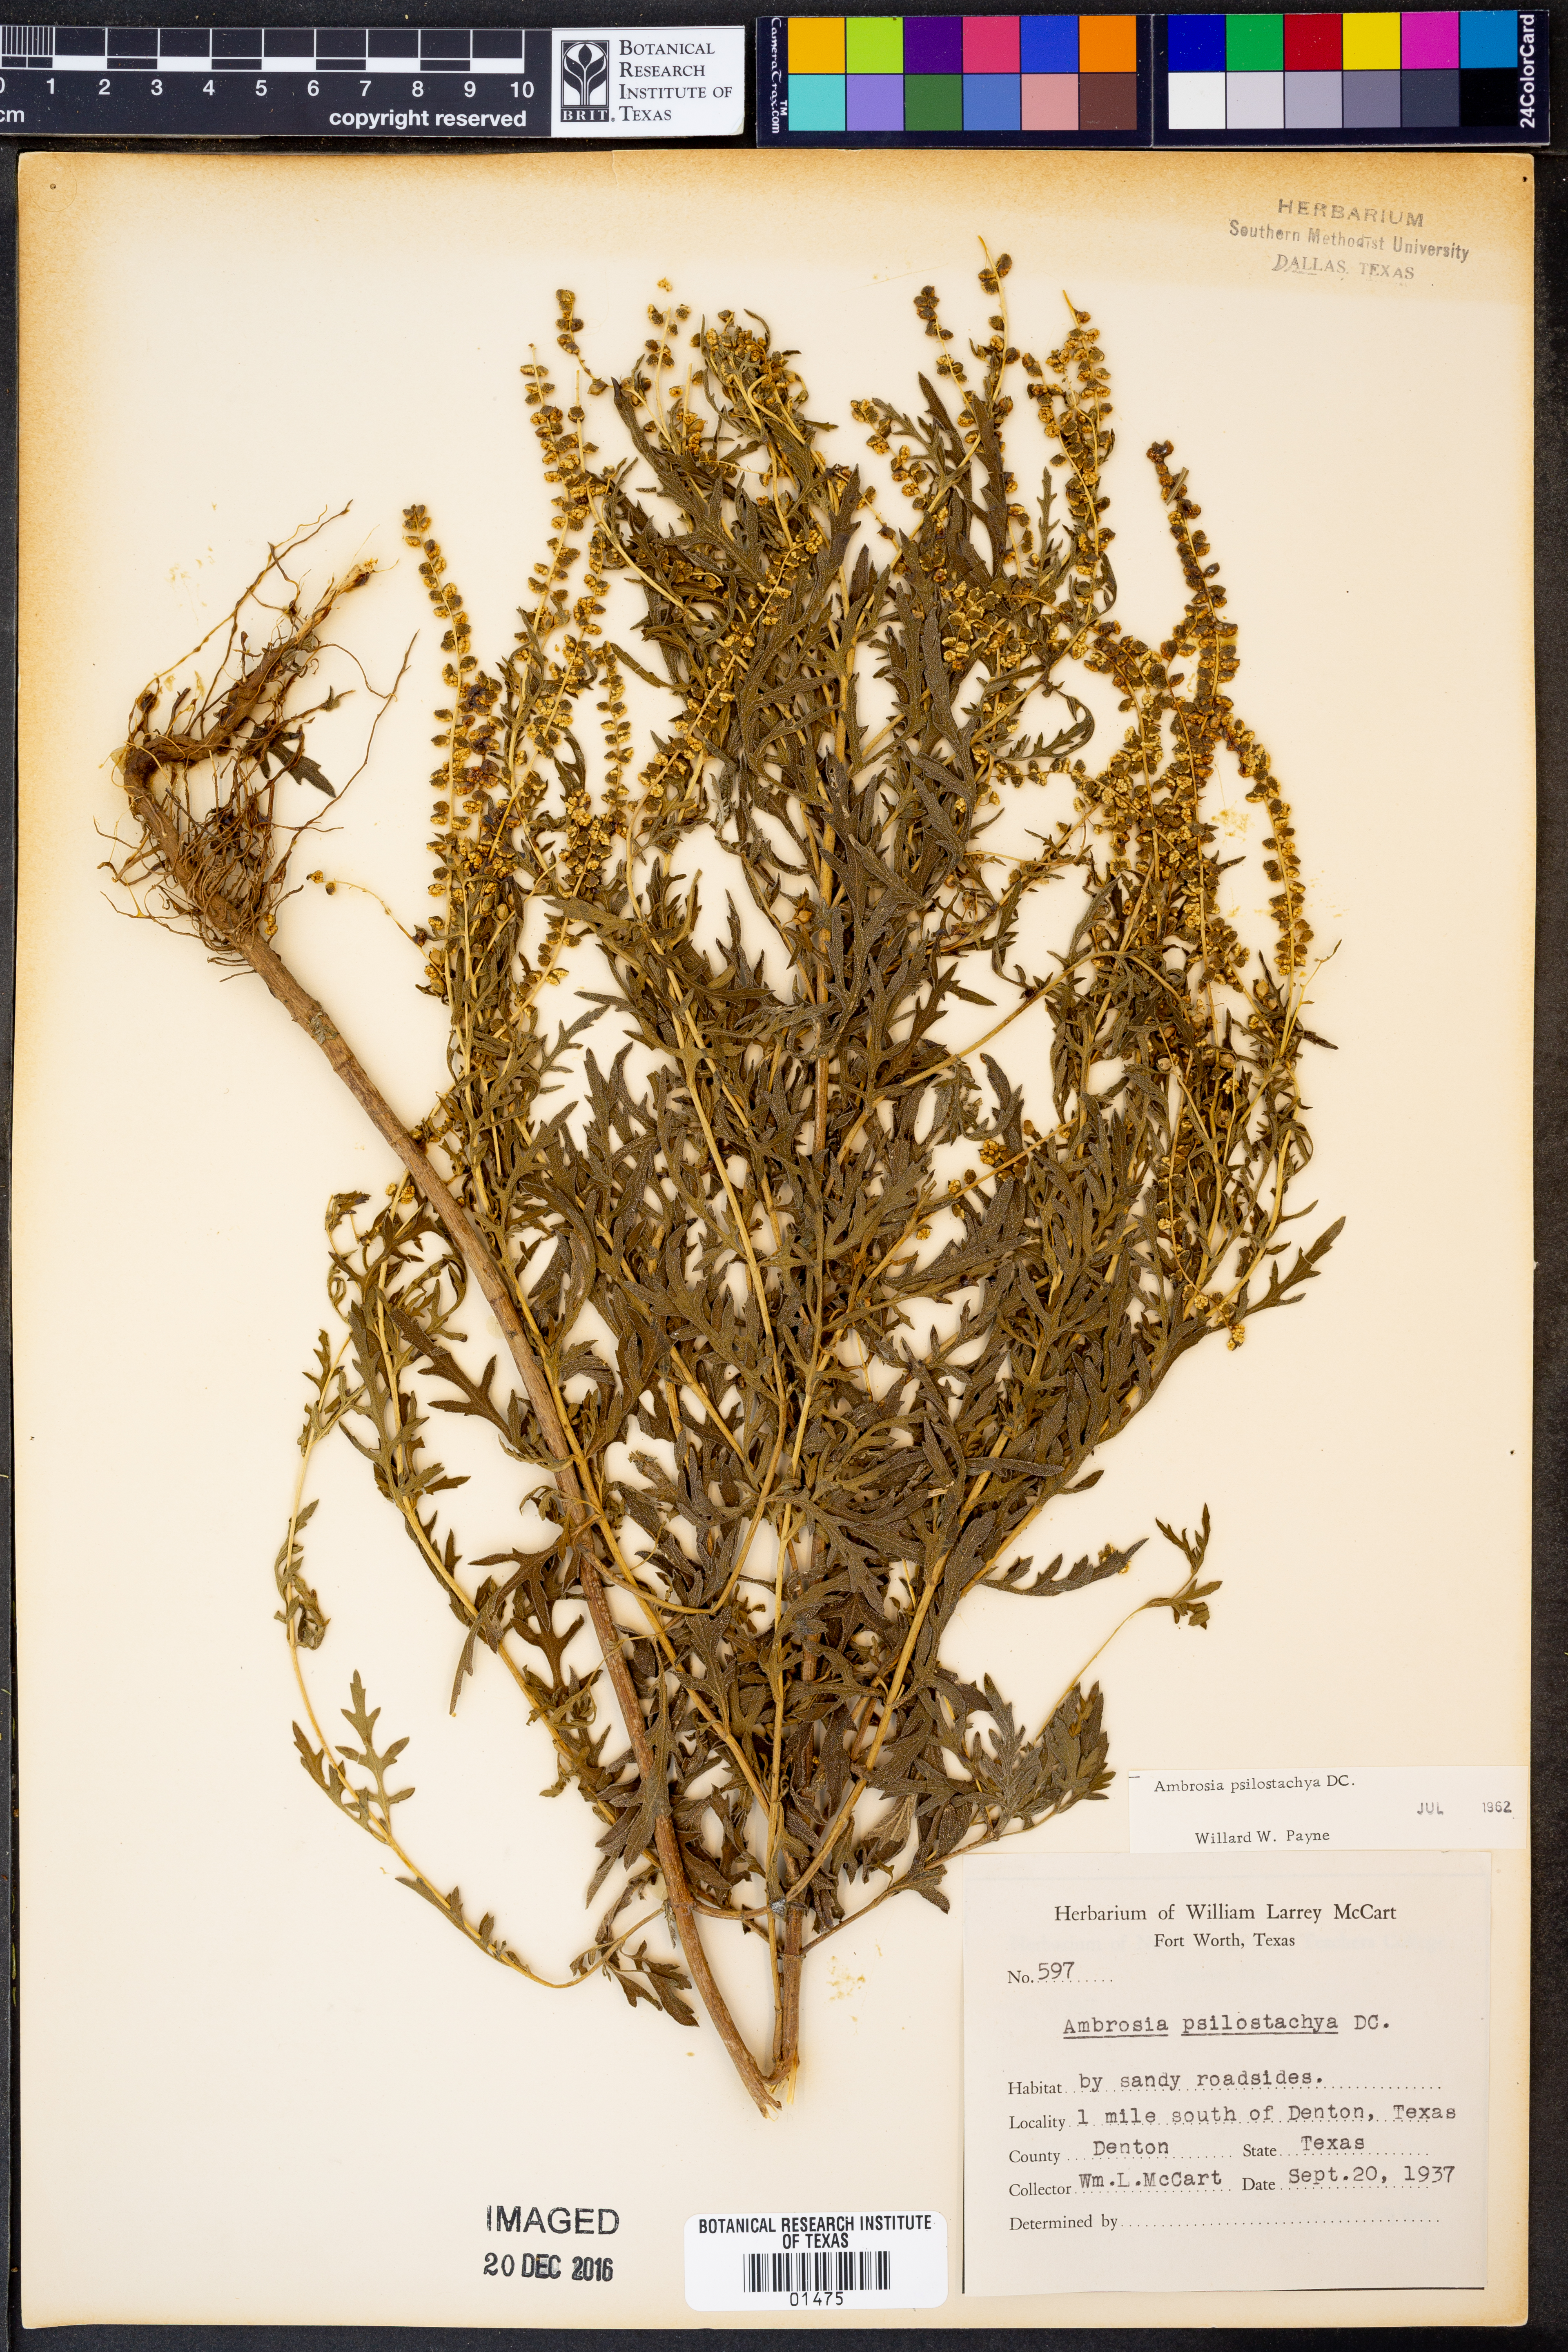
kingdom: Plantae
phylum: Tracheophyta
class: Magnoliopsida
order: Asterales
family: Asteraceae
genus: Ambrosia
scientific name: Ambrosia psilostachya
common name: Perennial ragweed
